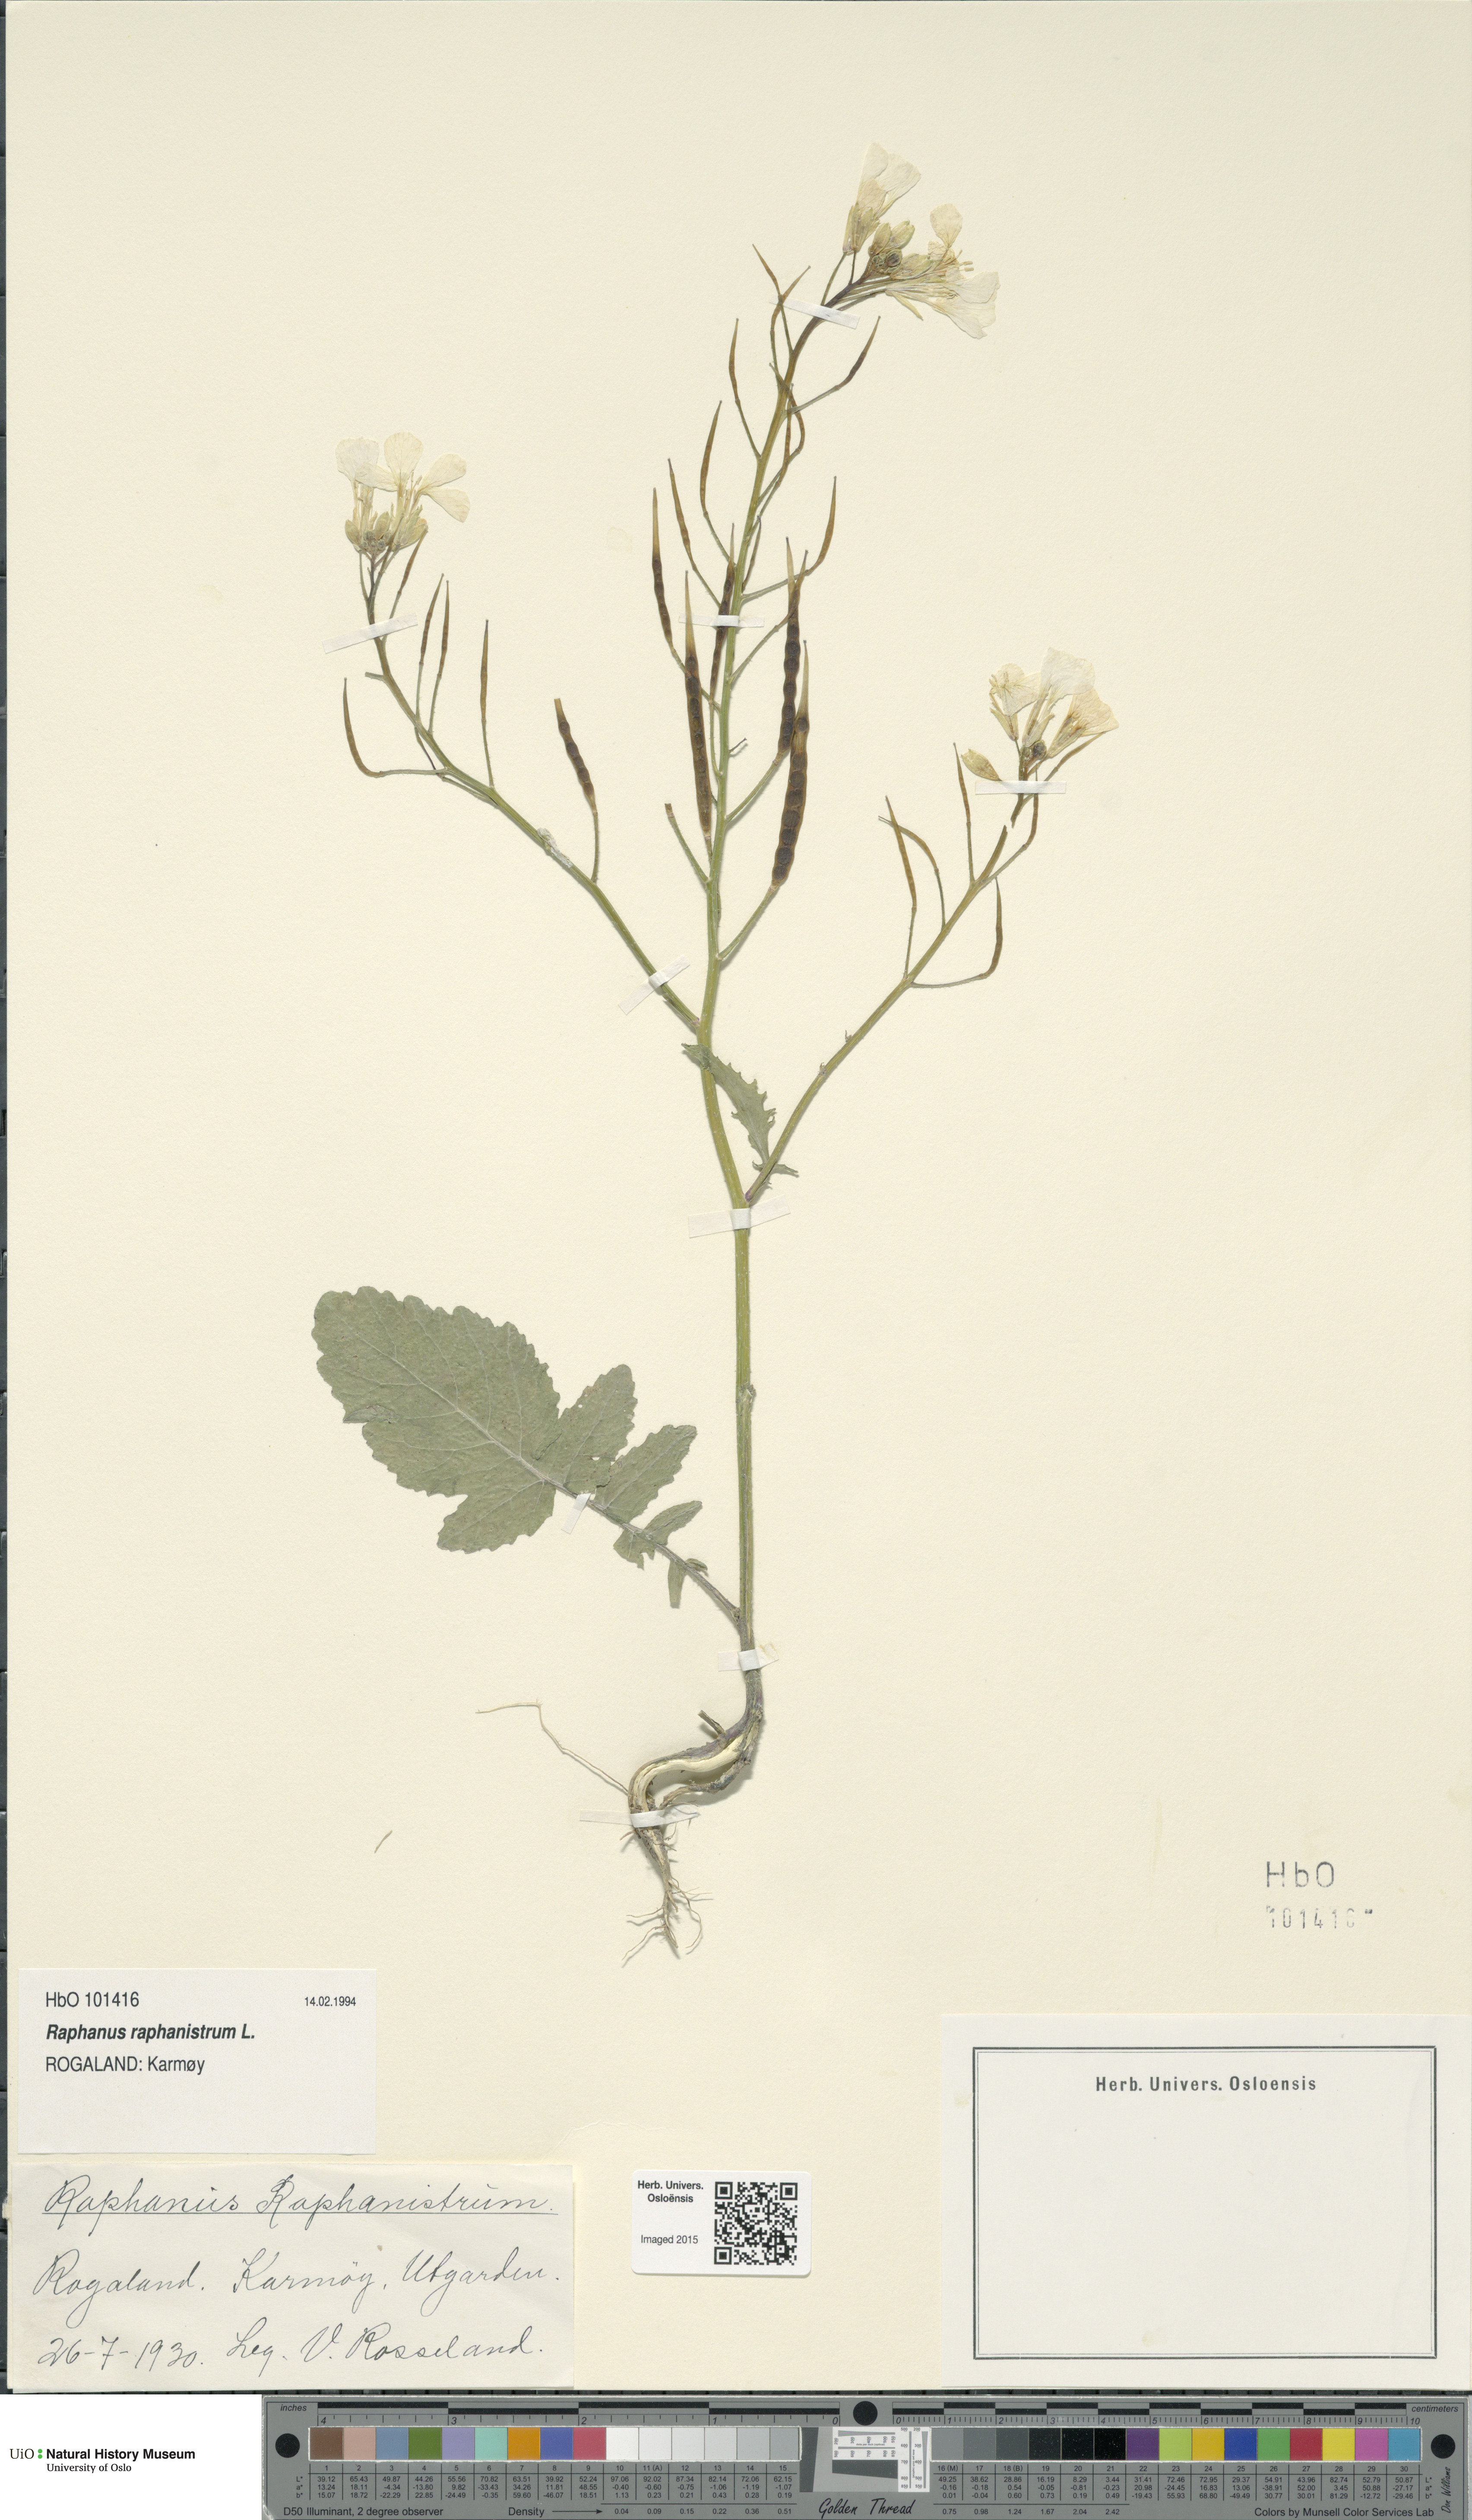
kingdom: Plantae
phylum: Tracheophyta
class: Magnoliopsida
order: Brassicales
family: Brassicaceae
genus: Raphanus
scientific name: Raphanus raphanistrum
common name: Wild radish
